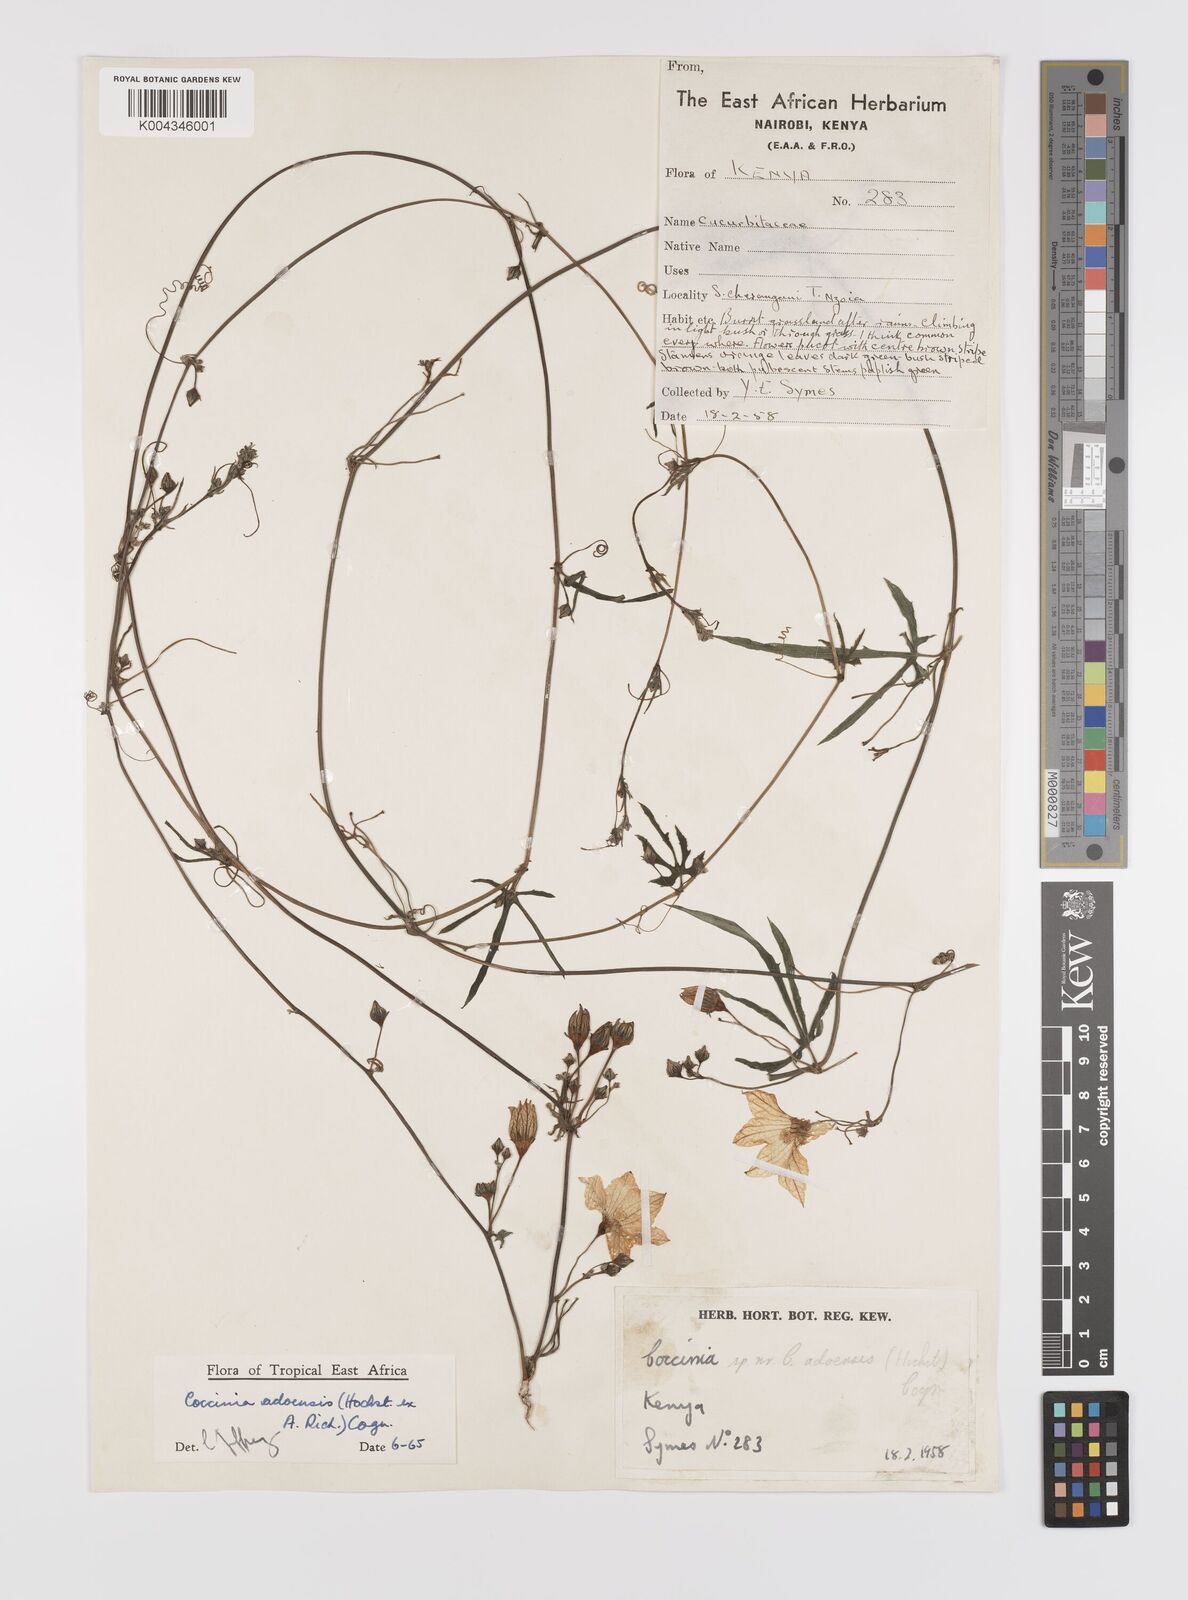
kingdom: Plantae
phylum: Tracheophyta
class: Magnoliopsida
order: Cucurbitales
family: Cucurbitaceae
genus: Coccinia
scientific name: Coccinia adoensis
